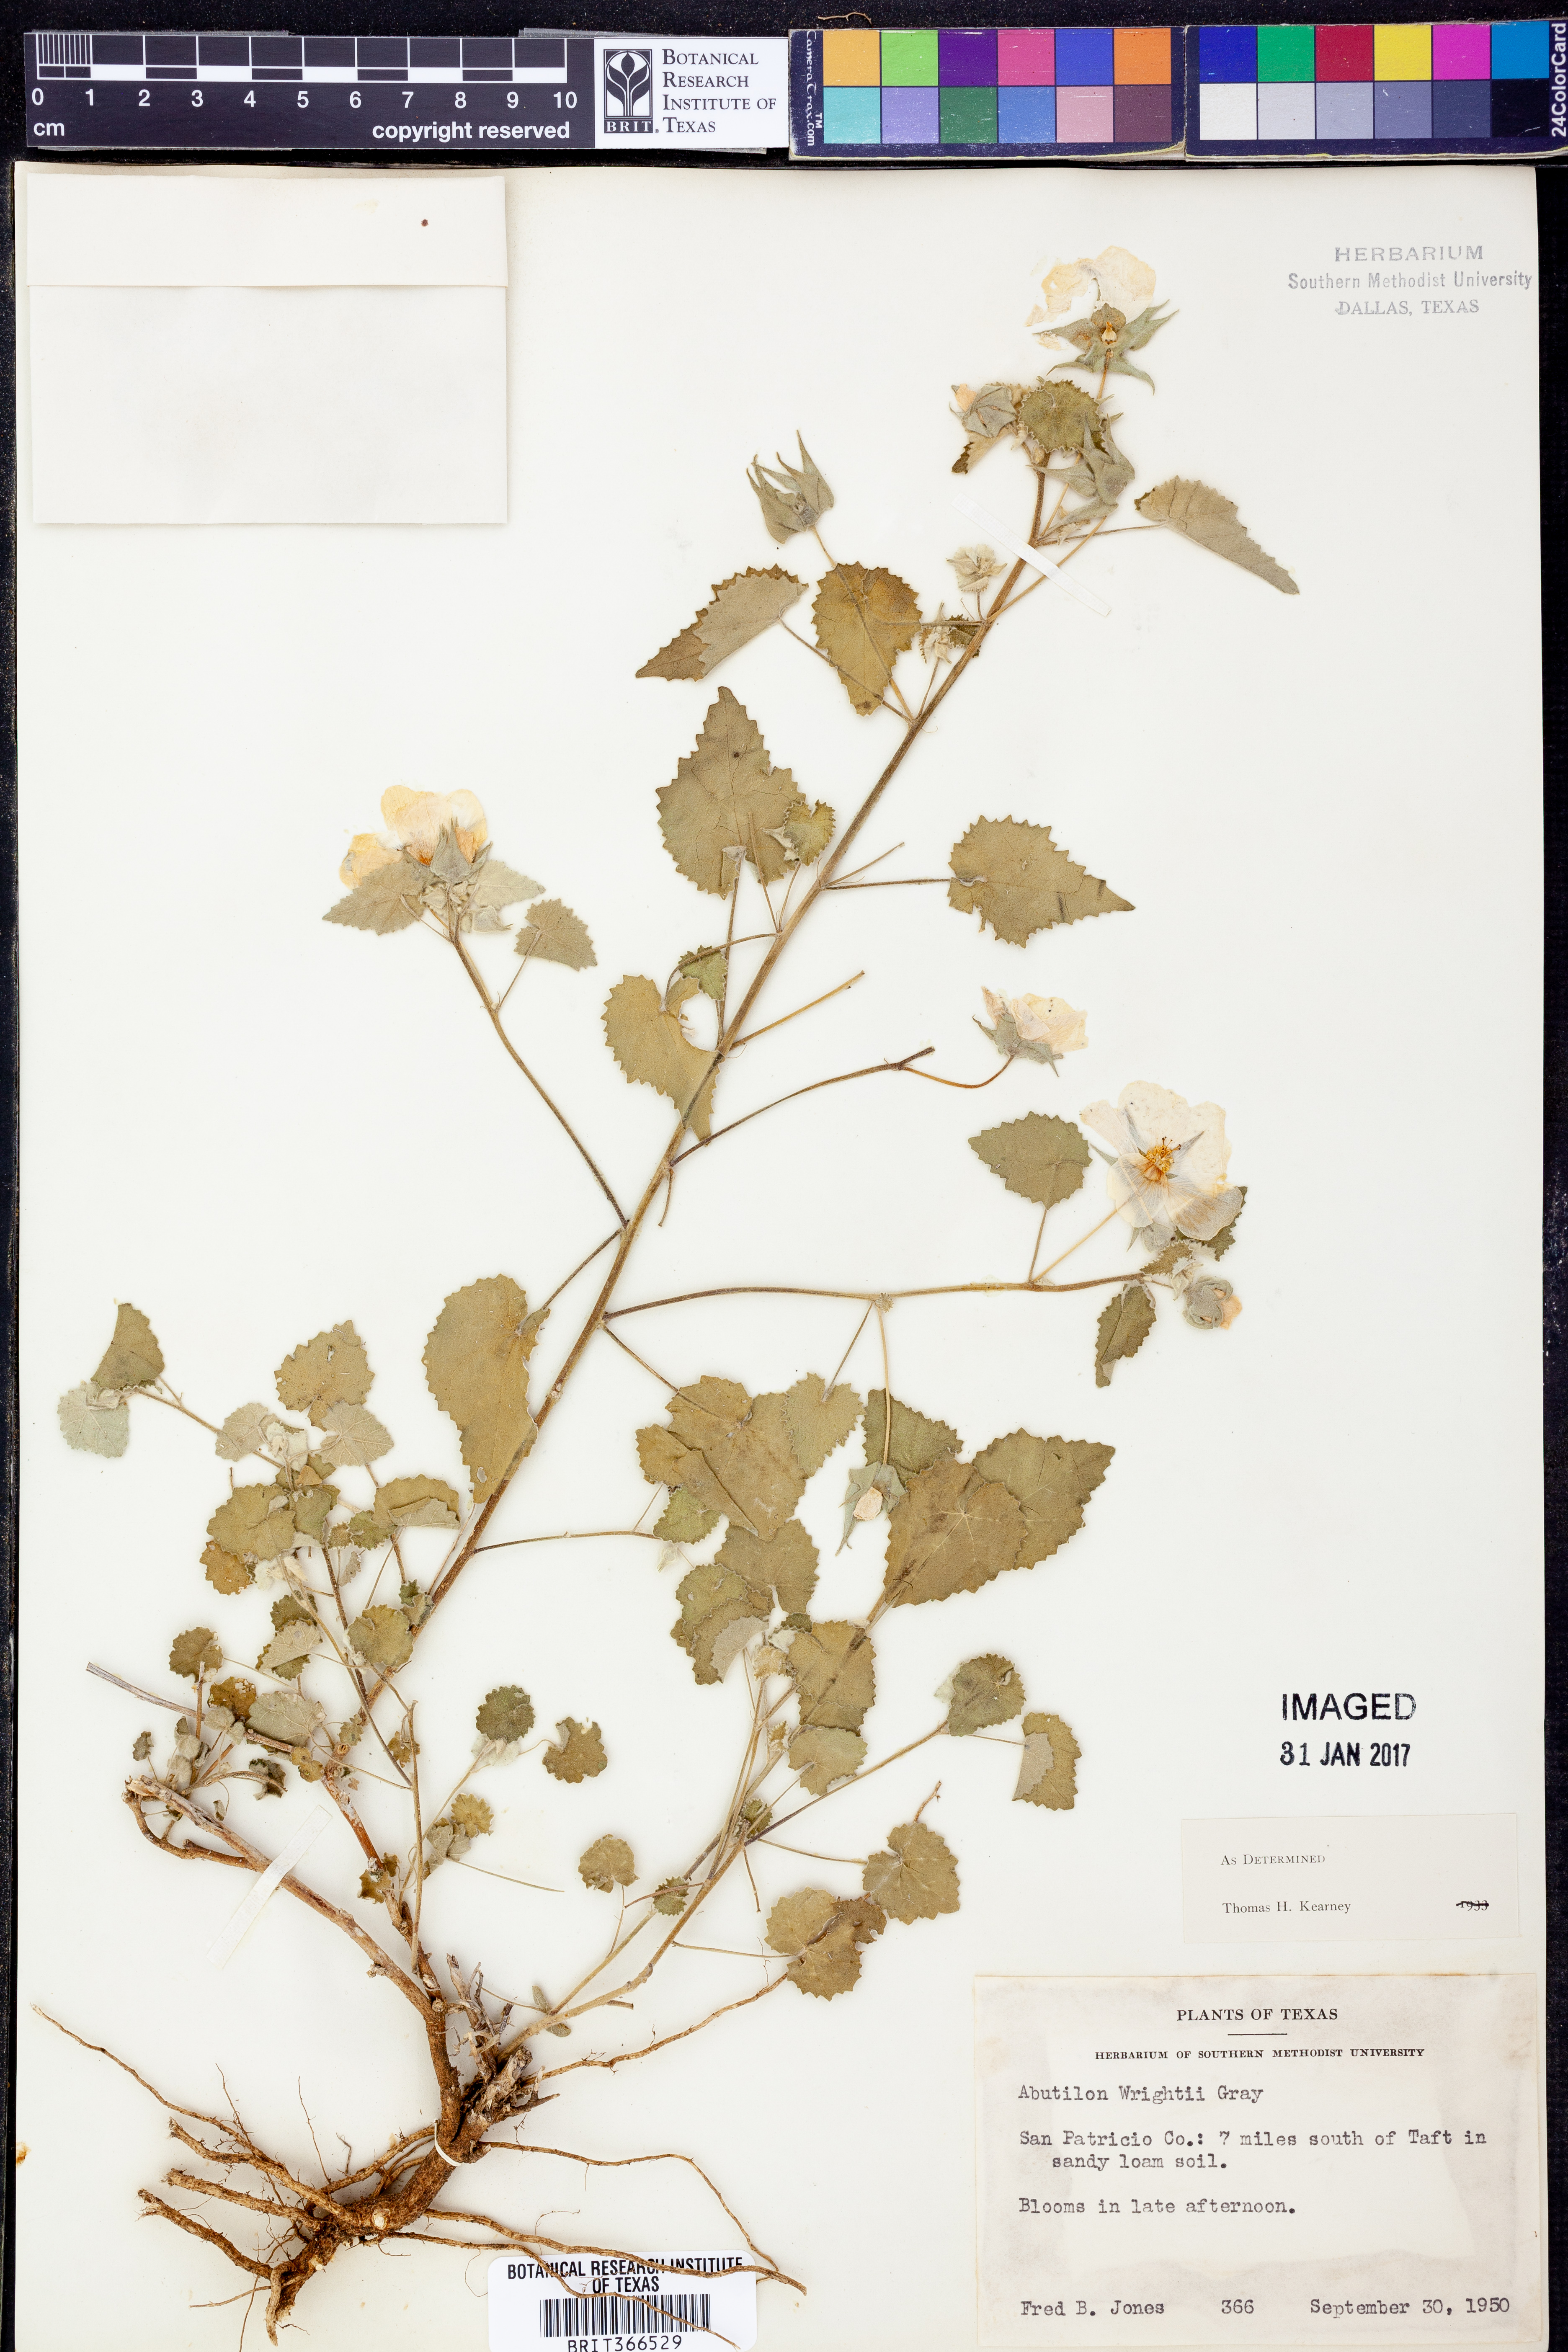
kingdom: Plantae
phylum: Tracheophyta
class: Magnoliopsida
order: Malvales
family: Malvaceae
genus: Abutilon
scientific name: Abutilon wrightii
